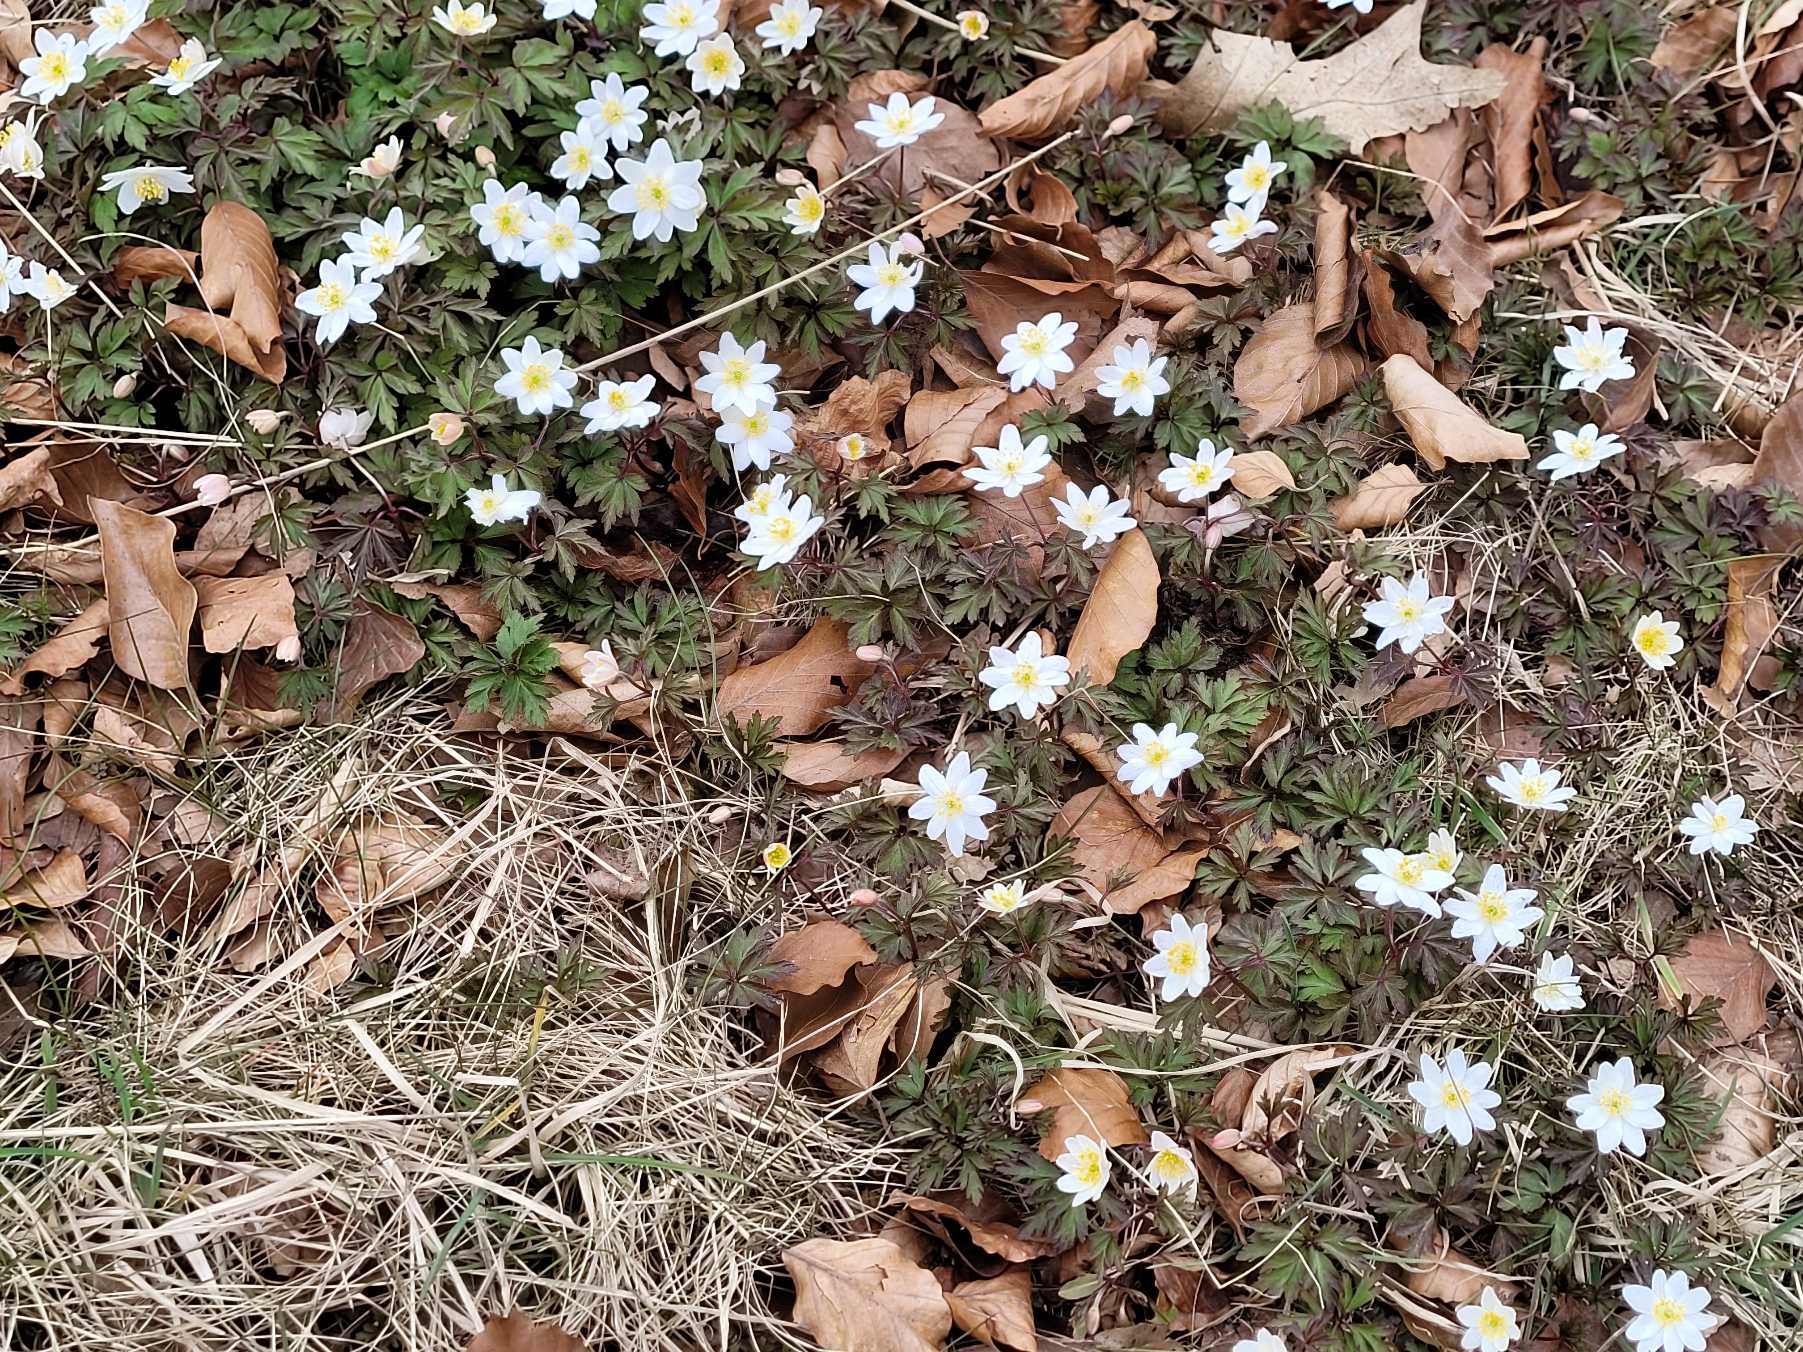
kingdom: Plantae
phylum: Tracheophyta
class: Magnoliopsida
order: Ranunculales
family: Ranunculaceae
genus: Anemone
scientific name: Anemone nemorosa
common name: Hvid anemone
